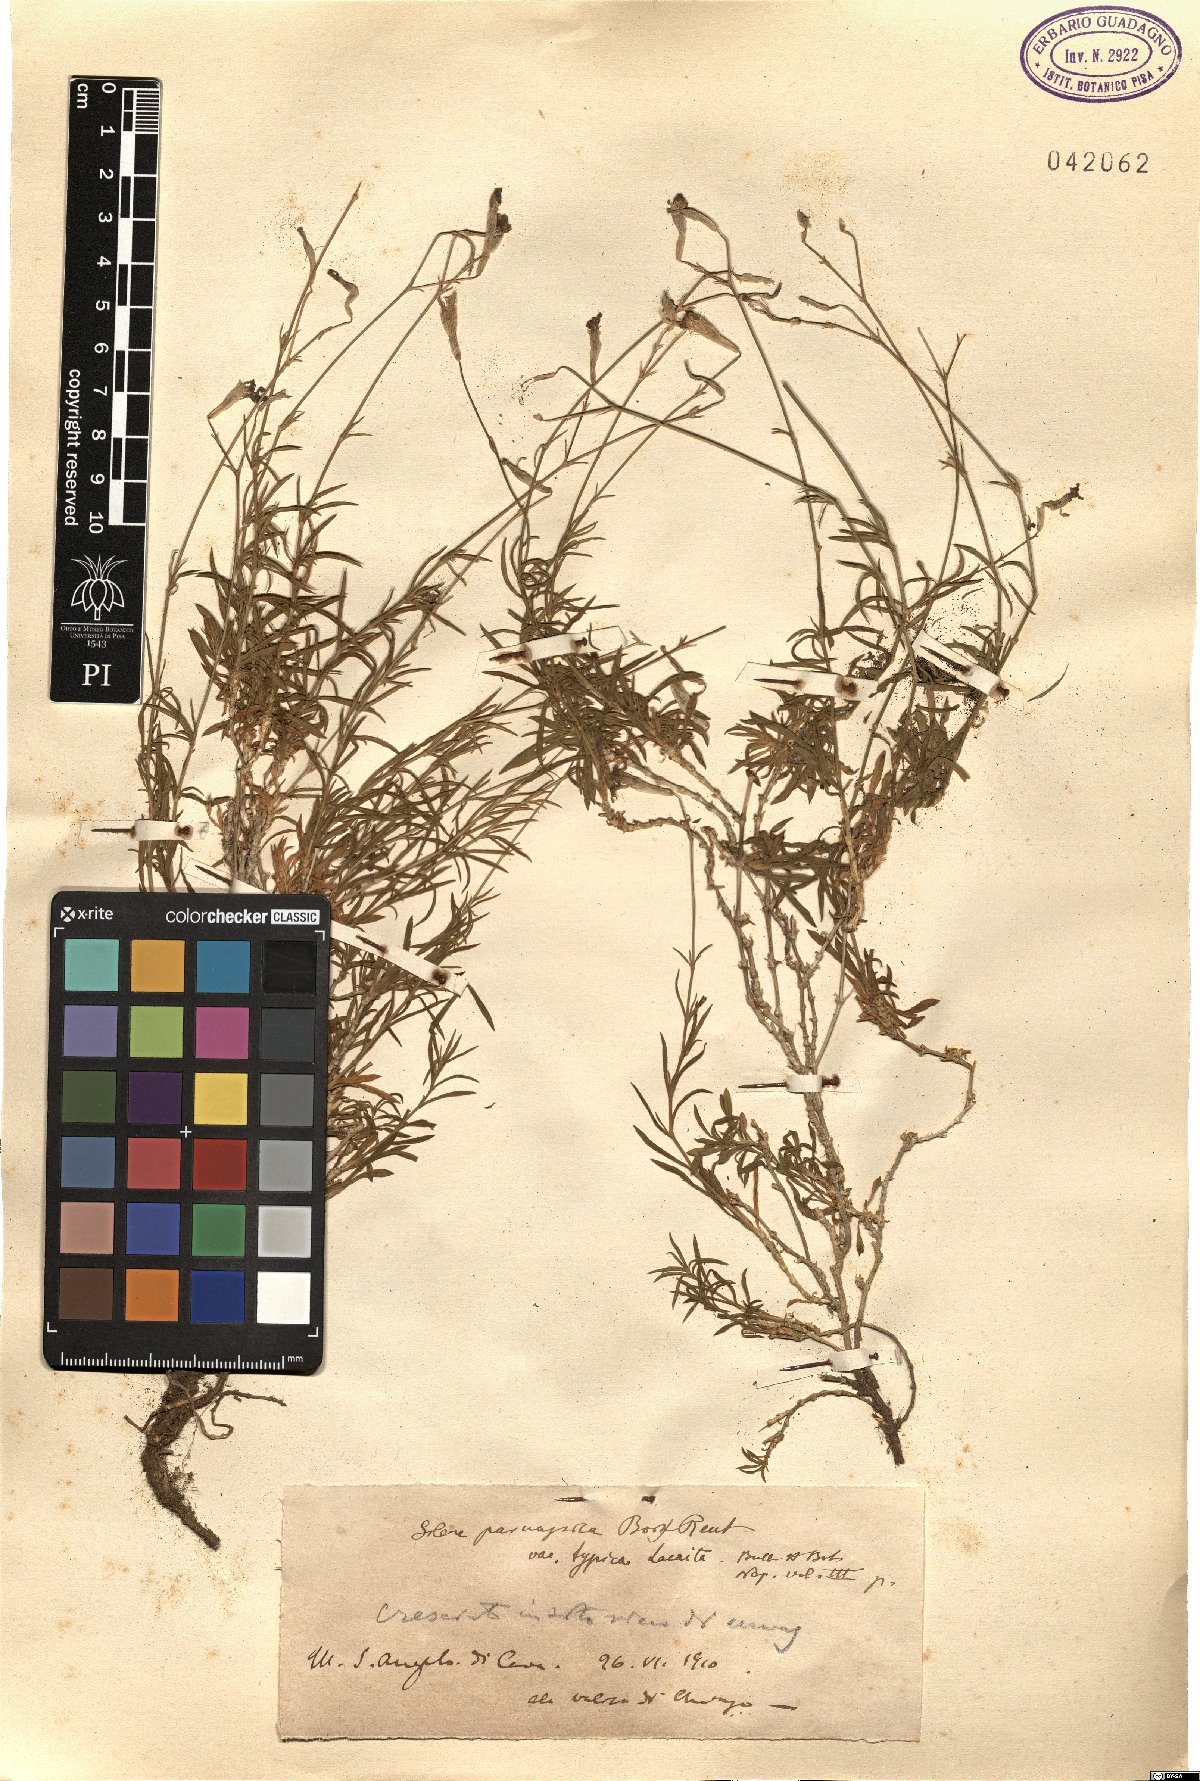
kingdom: Plantae
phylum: Tracheophyta
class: Magnoliopsida
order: Caryophyllales
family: Caryophyllaceae
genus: Silene
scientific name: Silene parnassica
